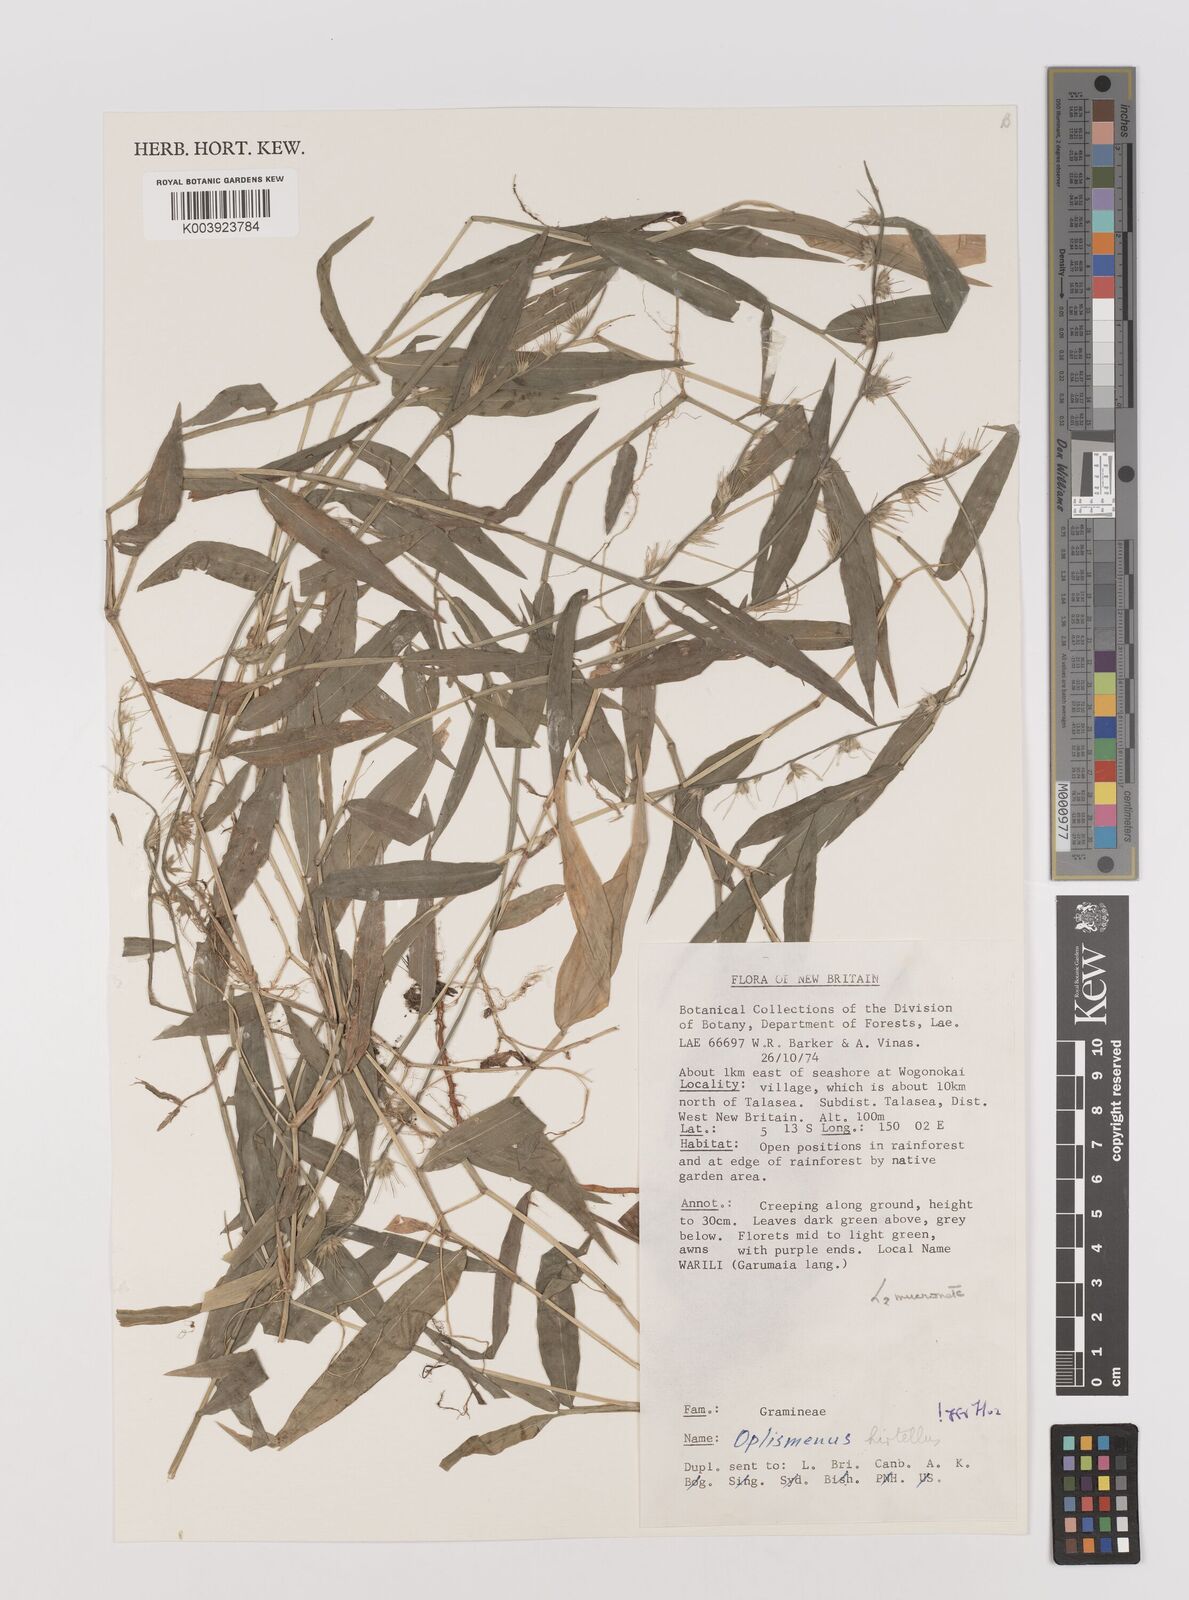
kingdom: Plantae
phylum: Tracheophyta
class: Liliopsida
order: Poales
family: Poaceae
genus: Oplismenus
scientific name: Oplismenus hirtellus
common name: Basketgrass
